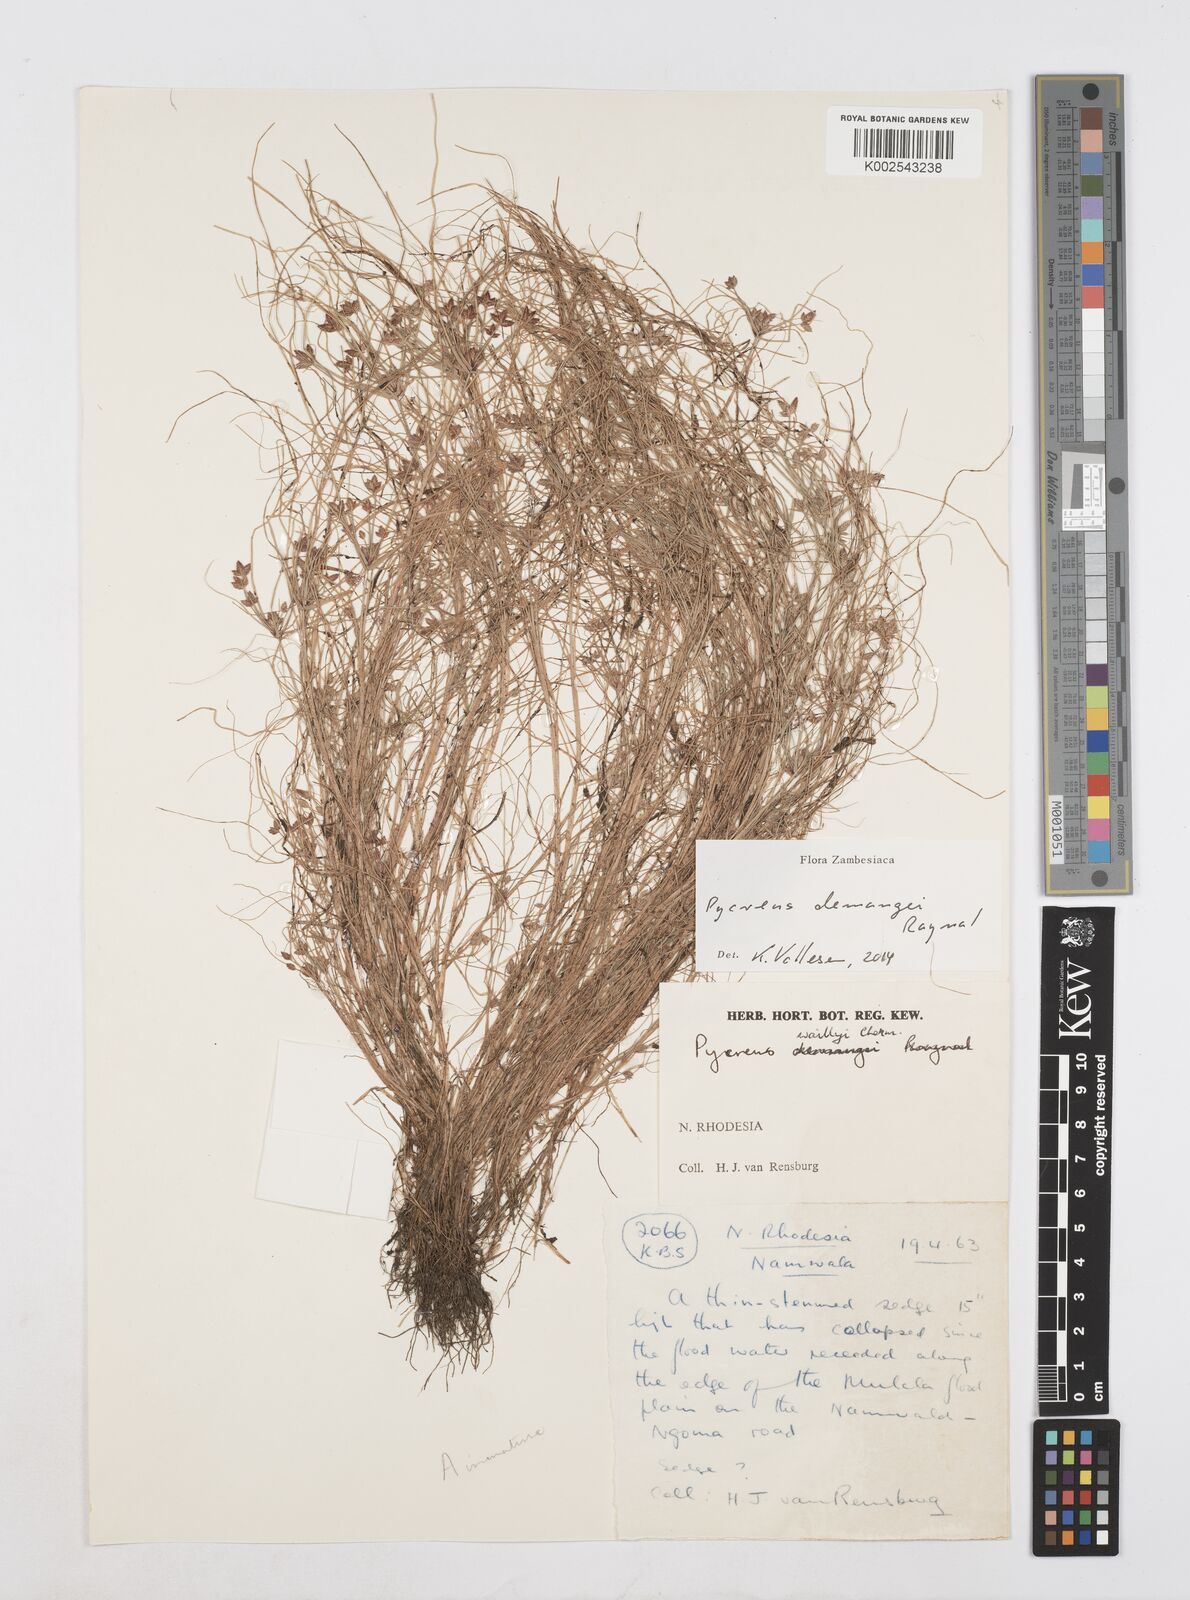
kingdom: Plantae
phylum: Tracheophyta
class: Liliopsida
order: Poales
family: Cyperaceae
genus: Cyperus
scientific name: Cyperus demangei
